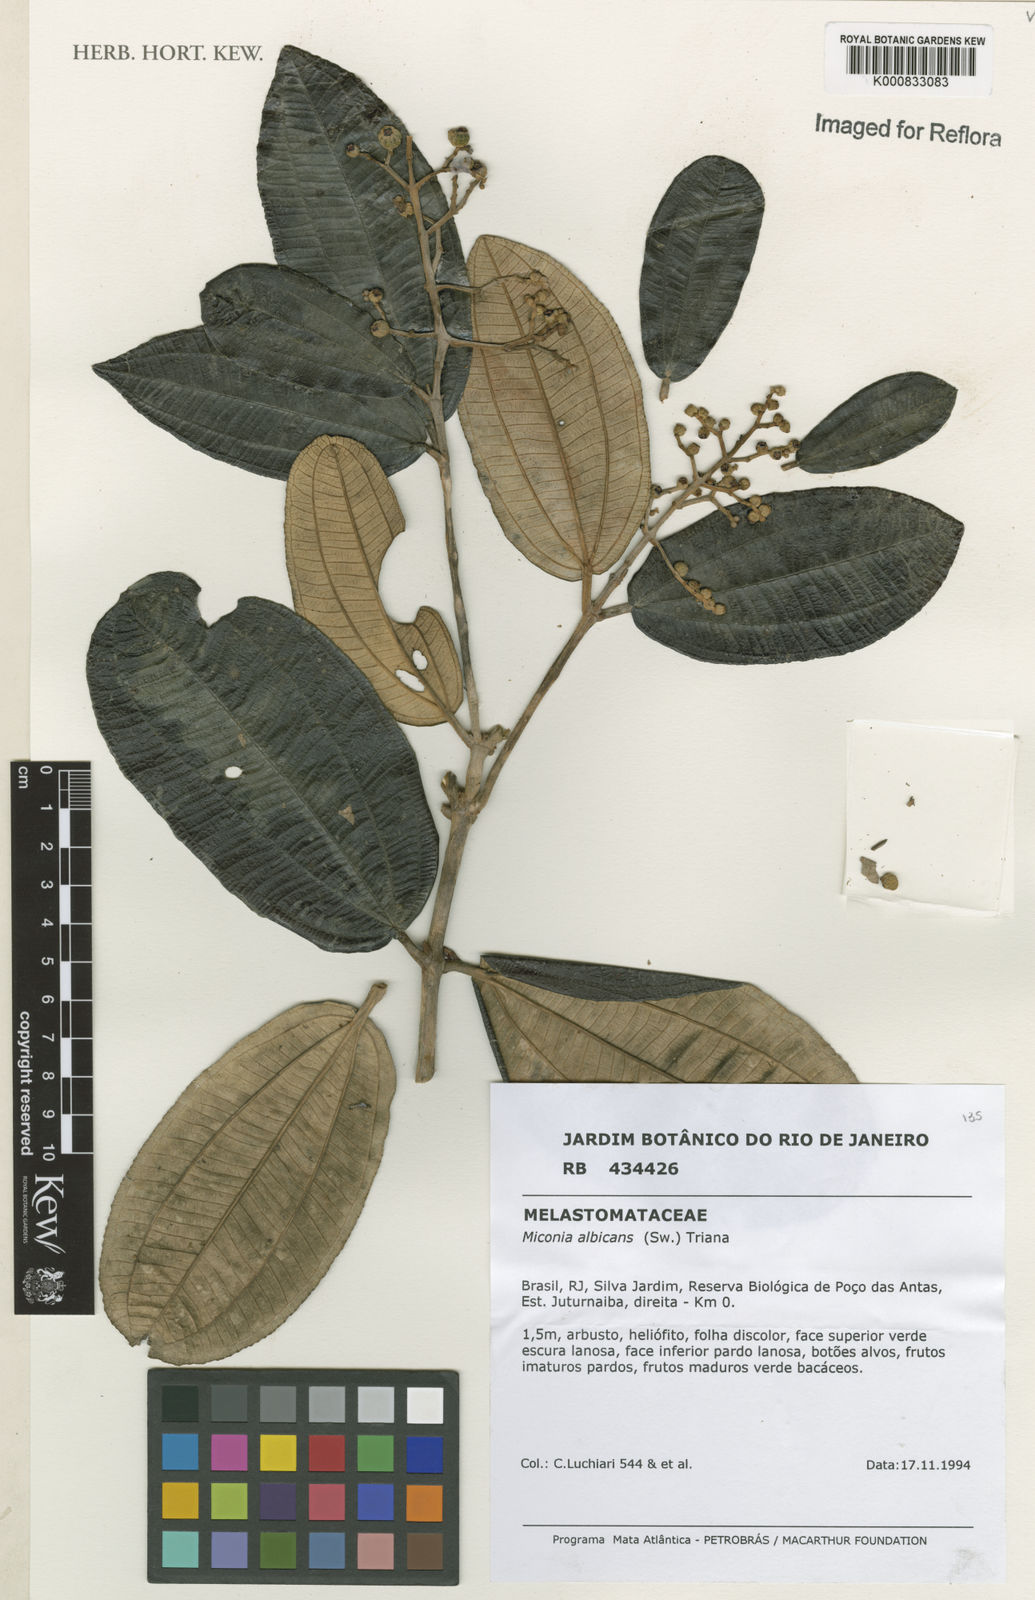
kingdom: Plantae
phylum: Tracheophyta
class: Magnoliopsida
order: Myrtales
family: Melastomataceae
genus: Miconia
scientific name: Miconia albicans
